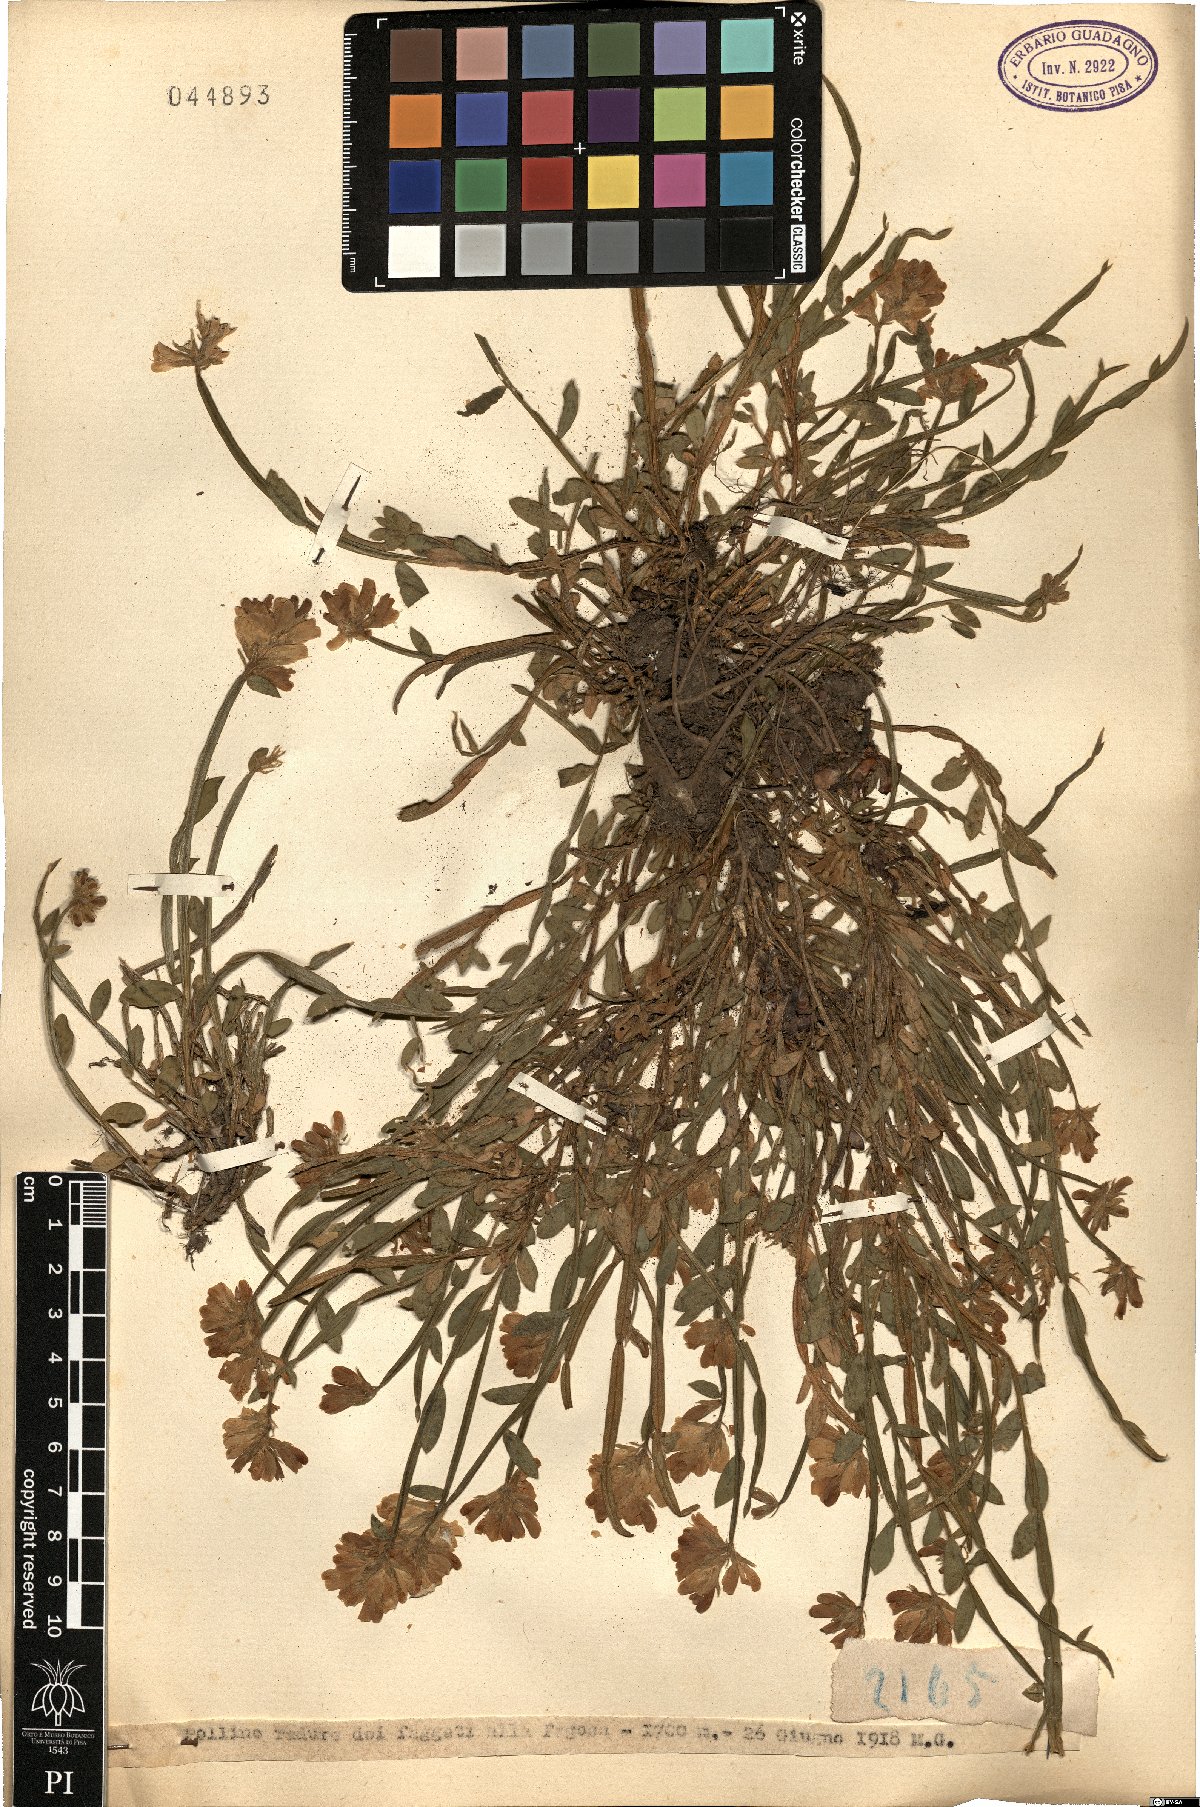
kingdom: Plantae
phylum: Tracheophyta
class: Magnoliopsida
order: Fabales
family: Fabaceae
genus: Genista
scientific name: Genista
